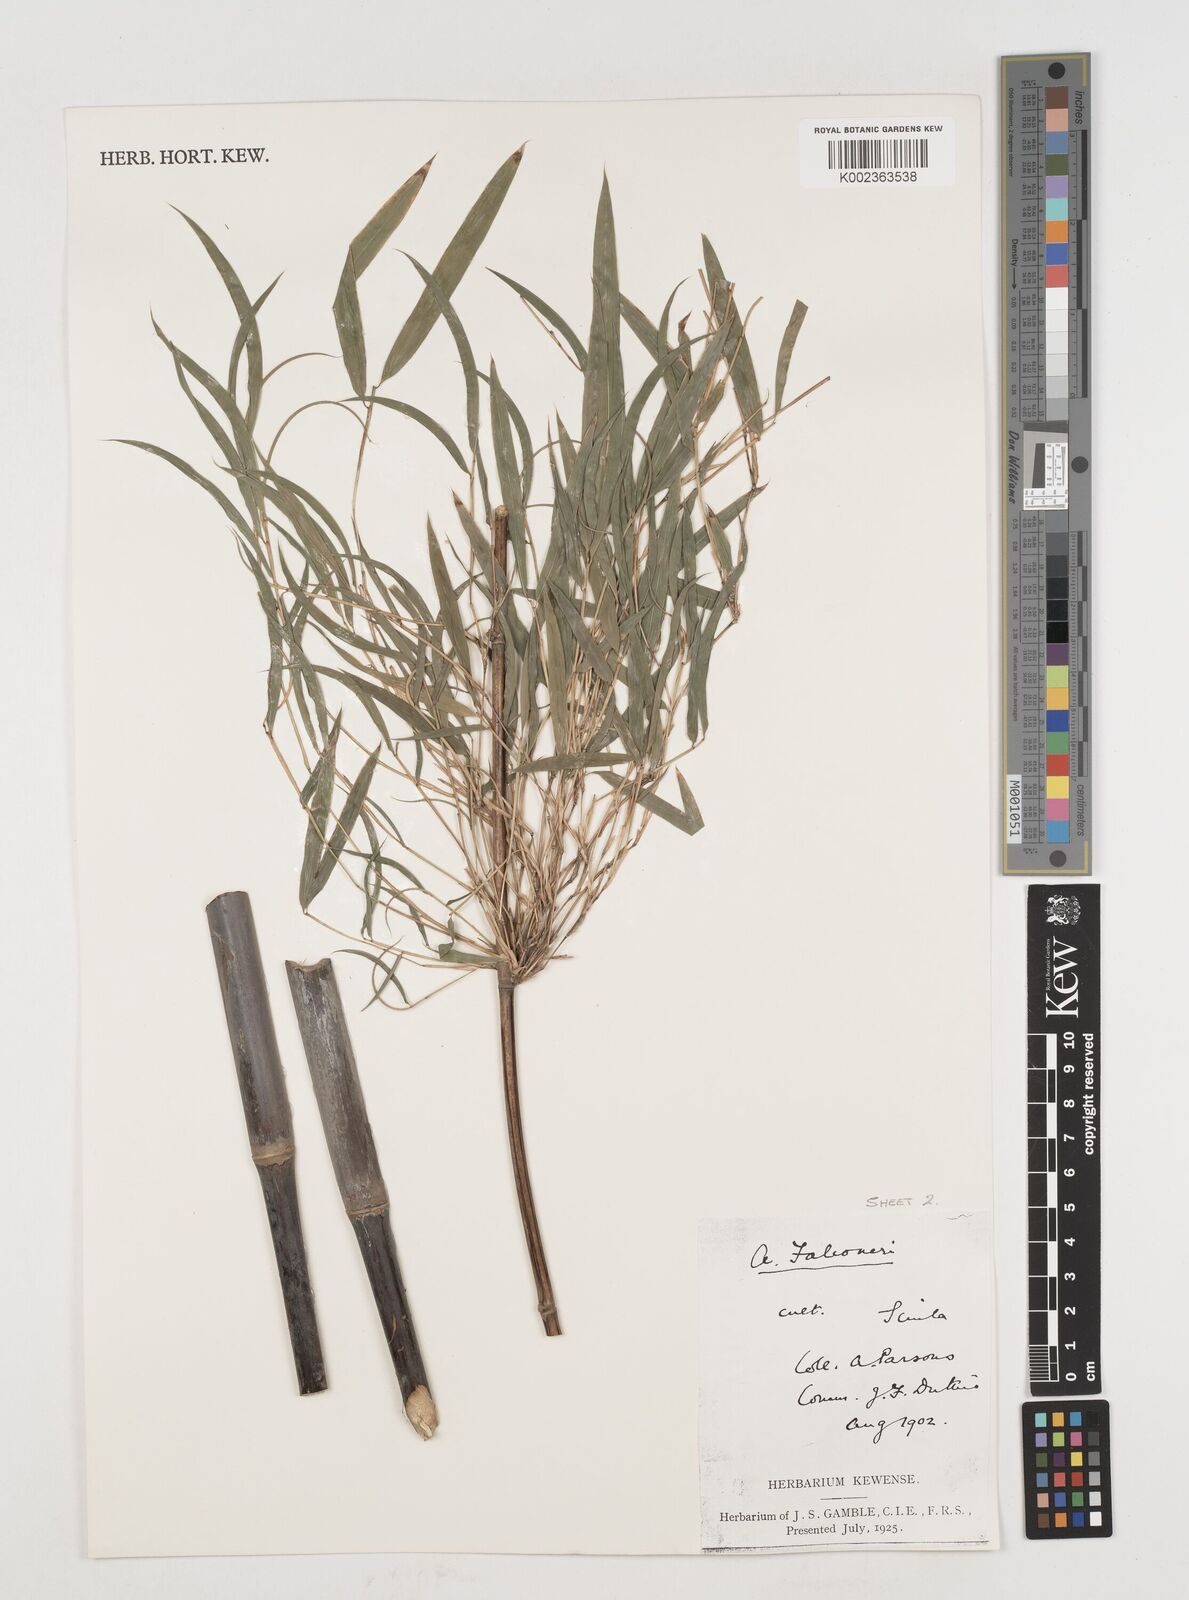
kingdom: Plantae
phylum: Tracheophyta
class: Liliopsida
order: Poales
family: Poaceae
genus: Himalayacalamus
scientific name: Himalayacalamus falconeri
